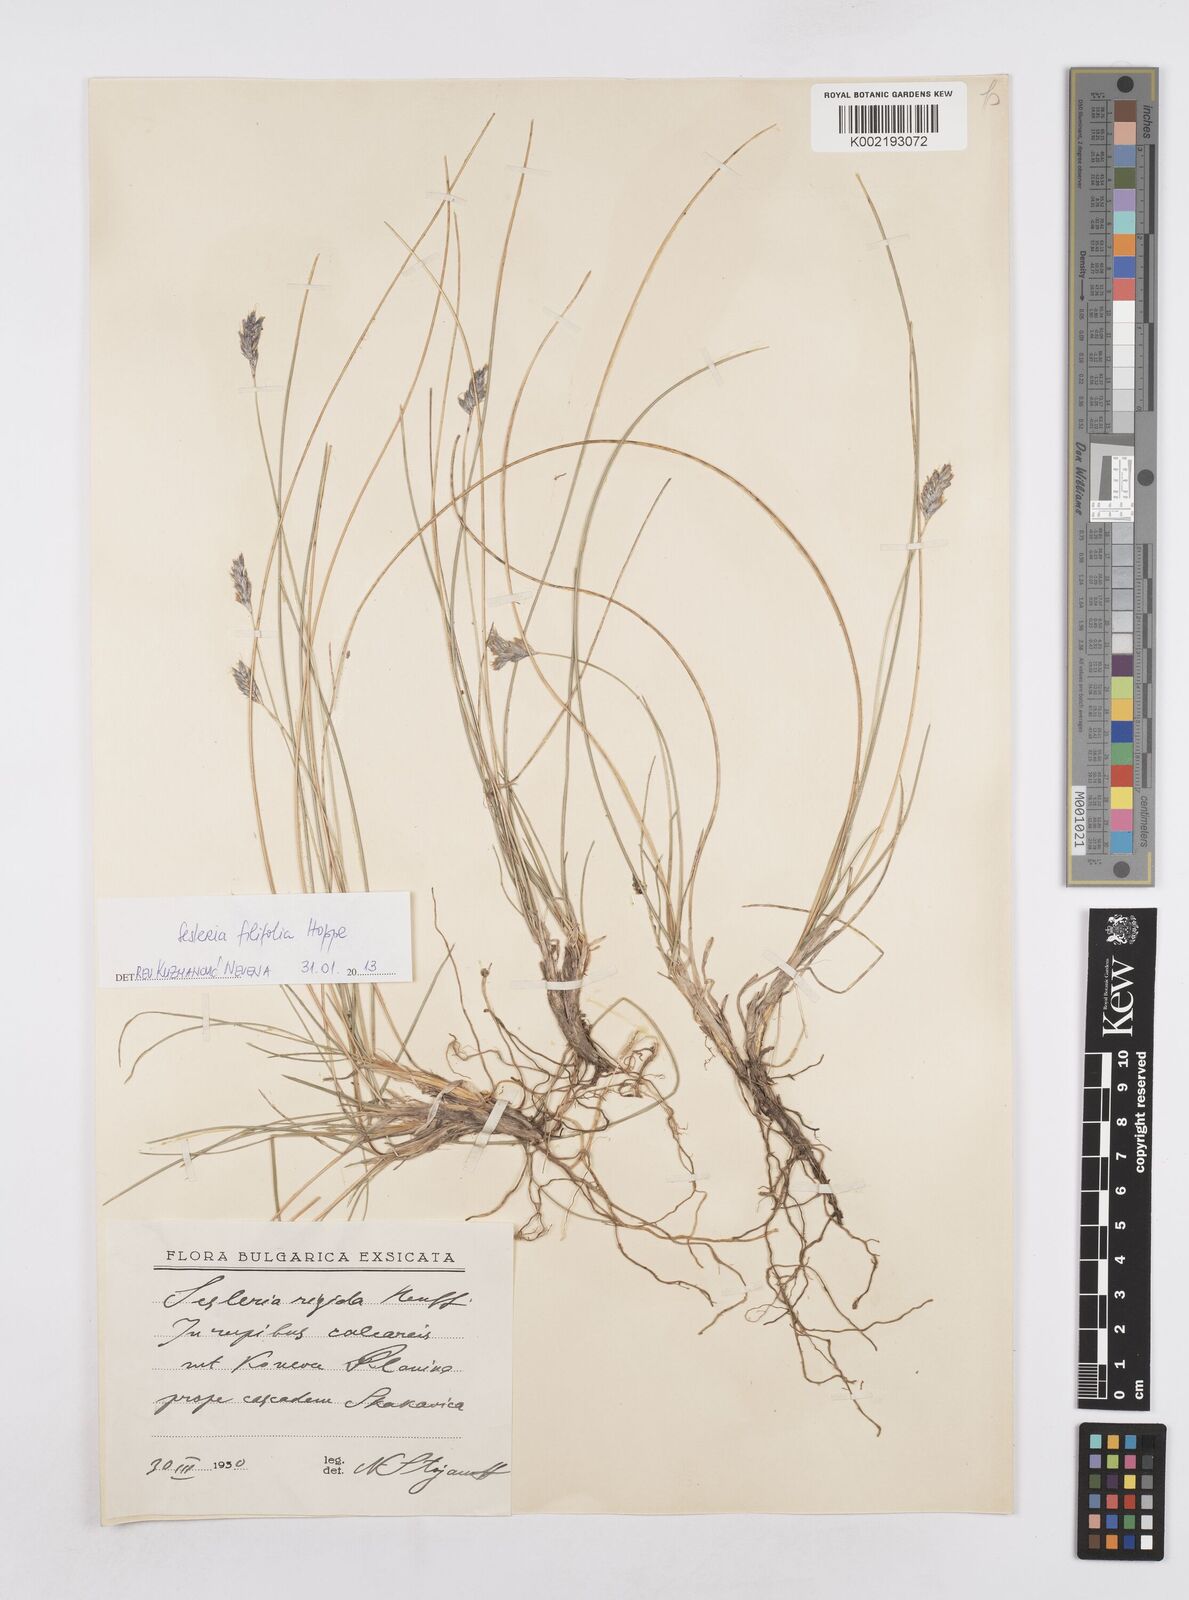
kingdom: Plantae
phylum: Tracheophyta
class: Liliopsida
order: Poales
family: Poaceae
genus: Sesleria
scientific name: Sesleria rigida
